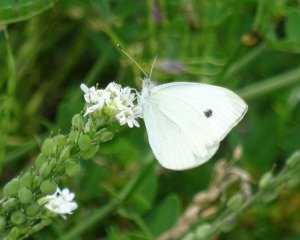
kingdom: Animalia
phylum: Arthropoda
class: Insecta
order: Lepidoptera
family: Pieridae
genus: Pieris
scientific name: Pieris rapae
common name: Cabbage White
